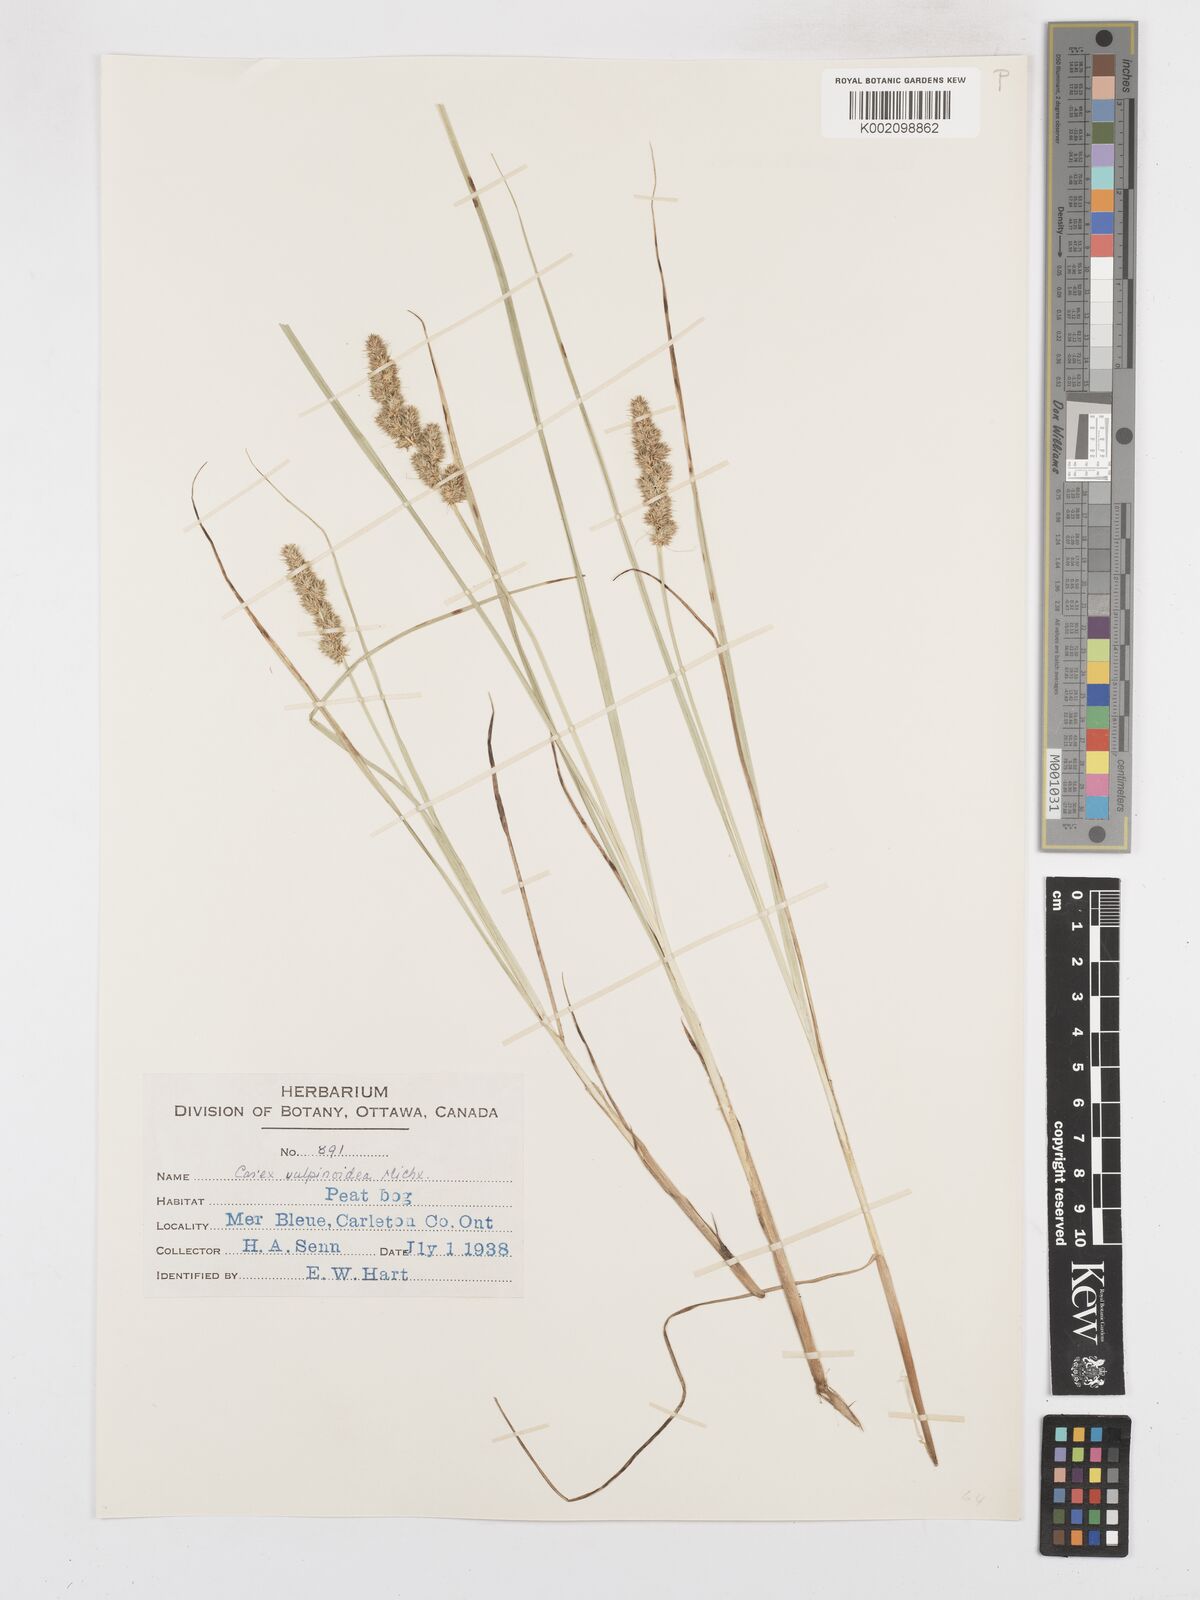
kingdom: Plantae
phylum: Tracheophyta
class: Liliopsida
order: Poales
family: Cyperaceae
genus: Carex
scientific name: Carex vulpinoidea
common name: American fox-sedge
